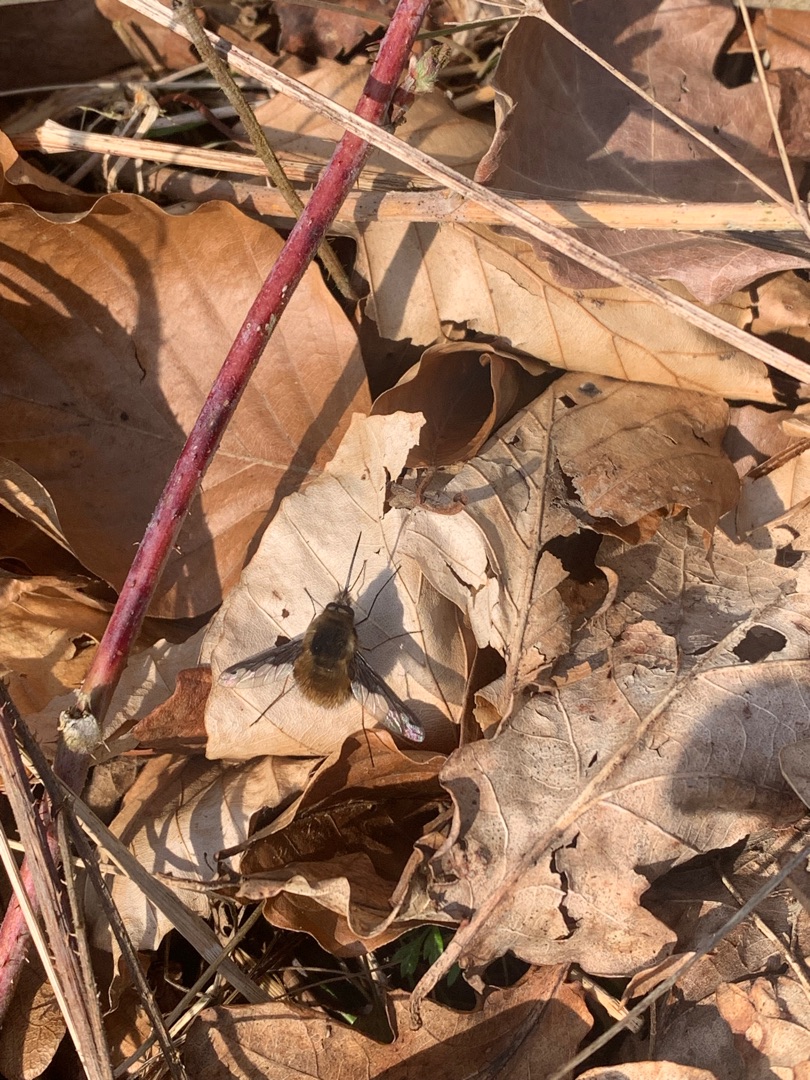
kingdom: Animalia
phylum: Arthropoda
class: Insecta
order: Diptera
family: Bombyliidae
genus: Bombylius
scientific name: Bombylius major
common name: Stor humleflue
